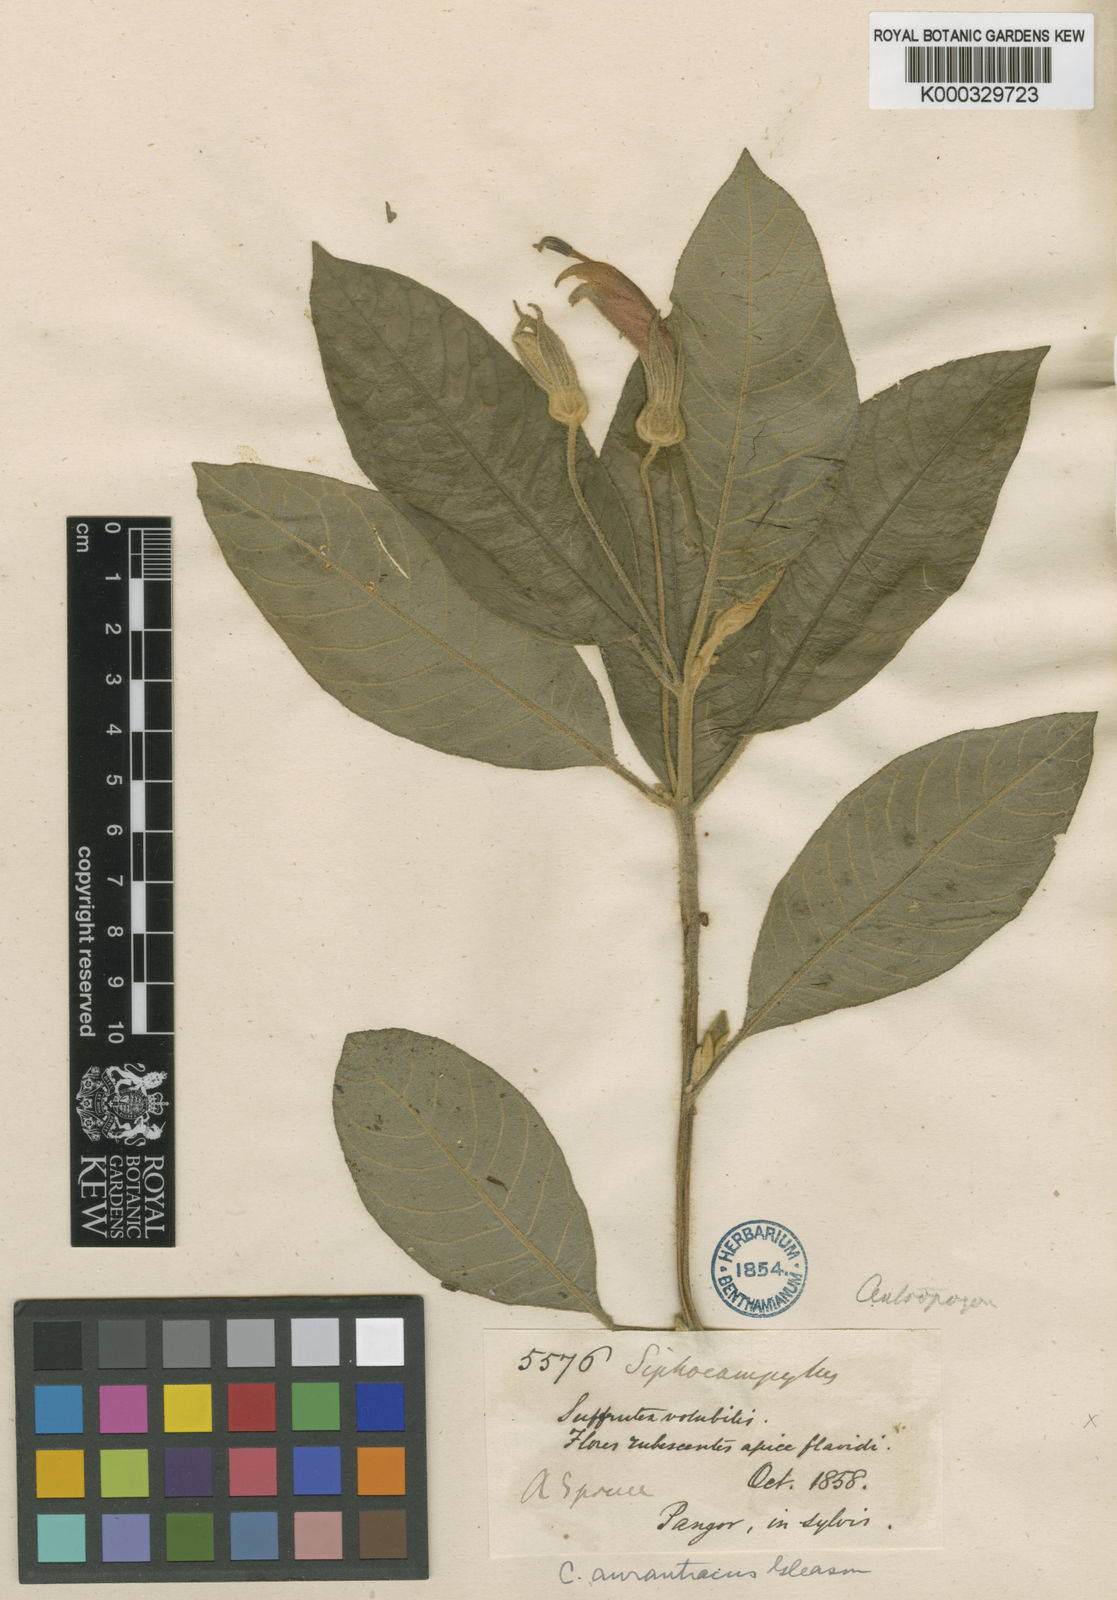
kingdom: Plantae
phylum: Tracheophyta
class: Magnoliopsida
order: Asterales
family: Campanulaceae
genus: Centropogon
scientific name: Centropogon luteus
